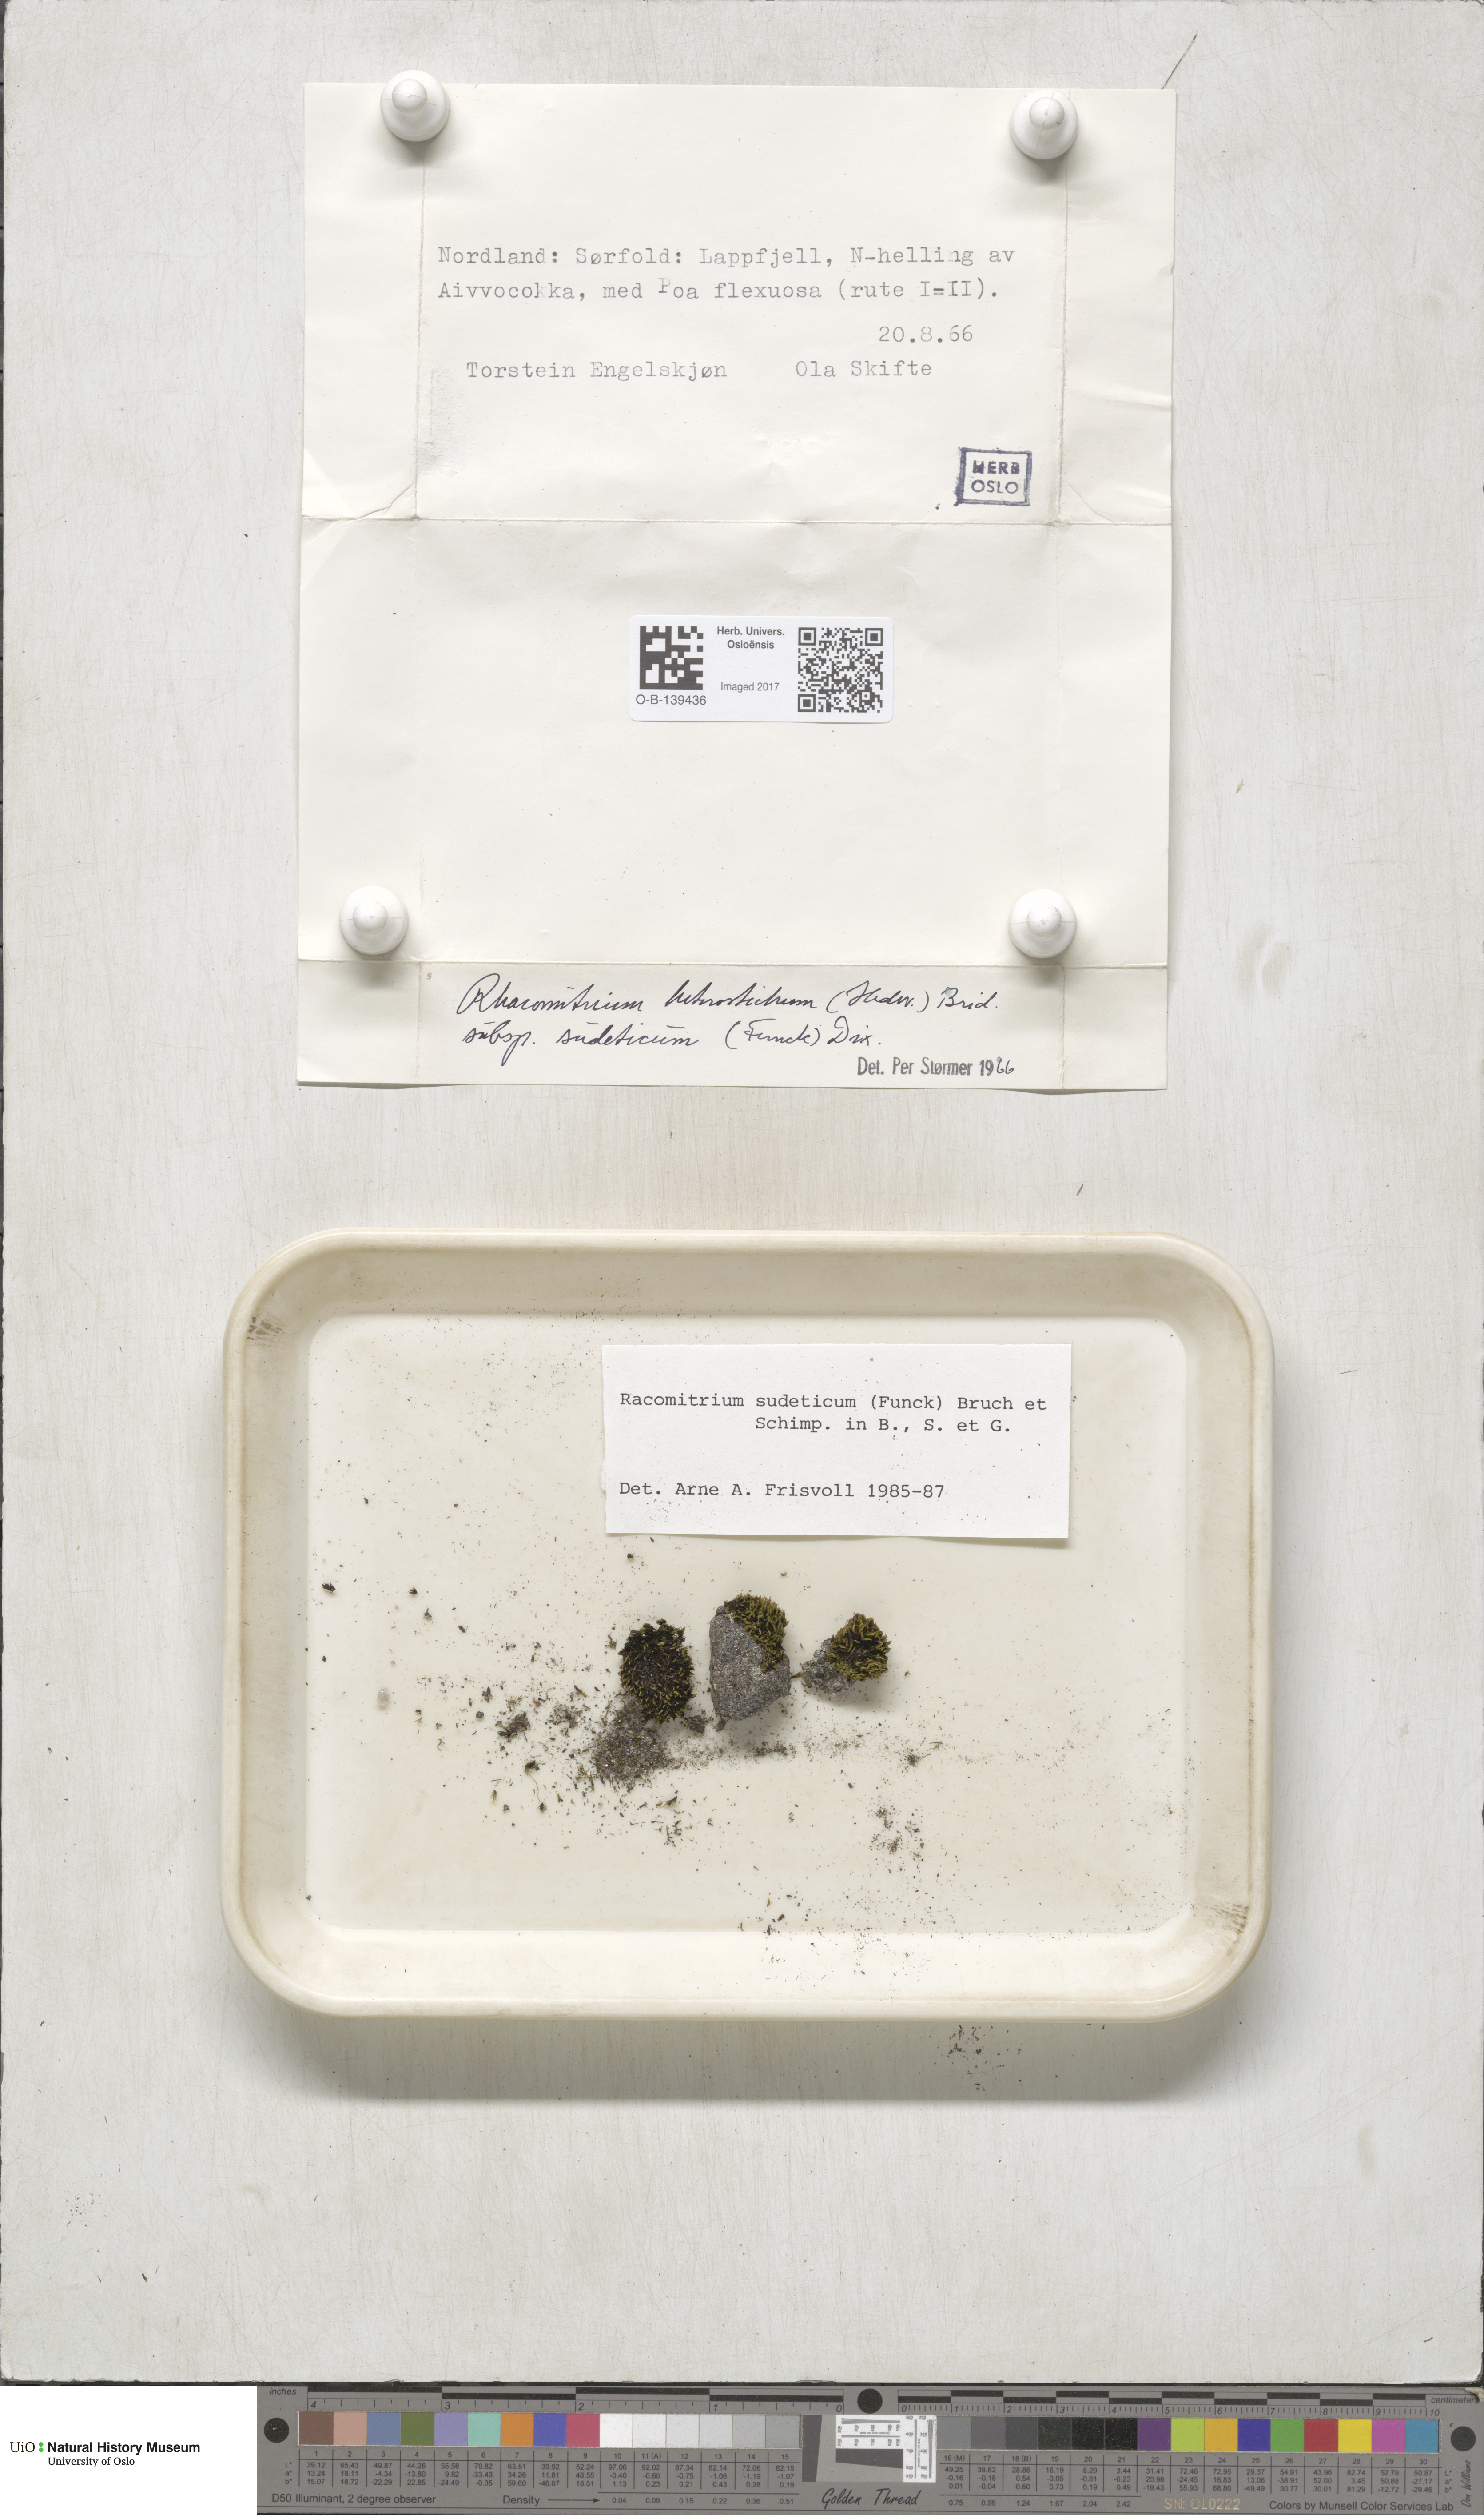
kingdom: Plantae
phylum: Bryophyta
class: Bryopsida
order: Grimmiales
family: Grimmiaceae
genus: Bucklandiella
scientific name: Bucklandiella sudetica
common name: Slender fringe-moss
